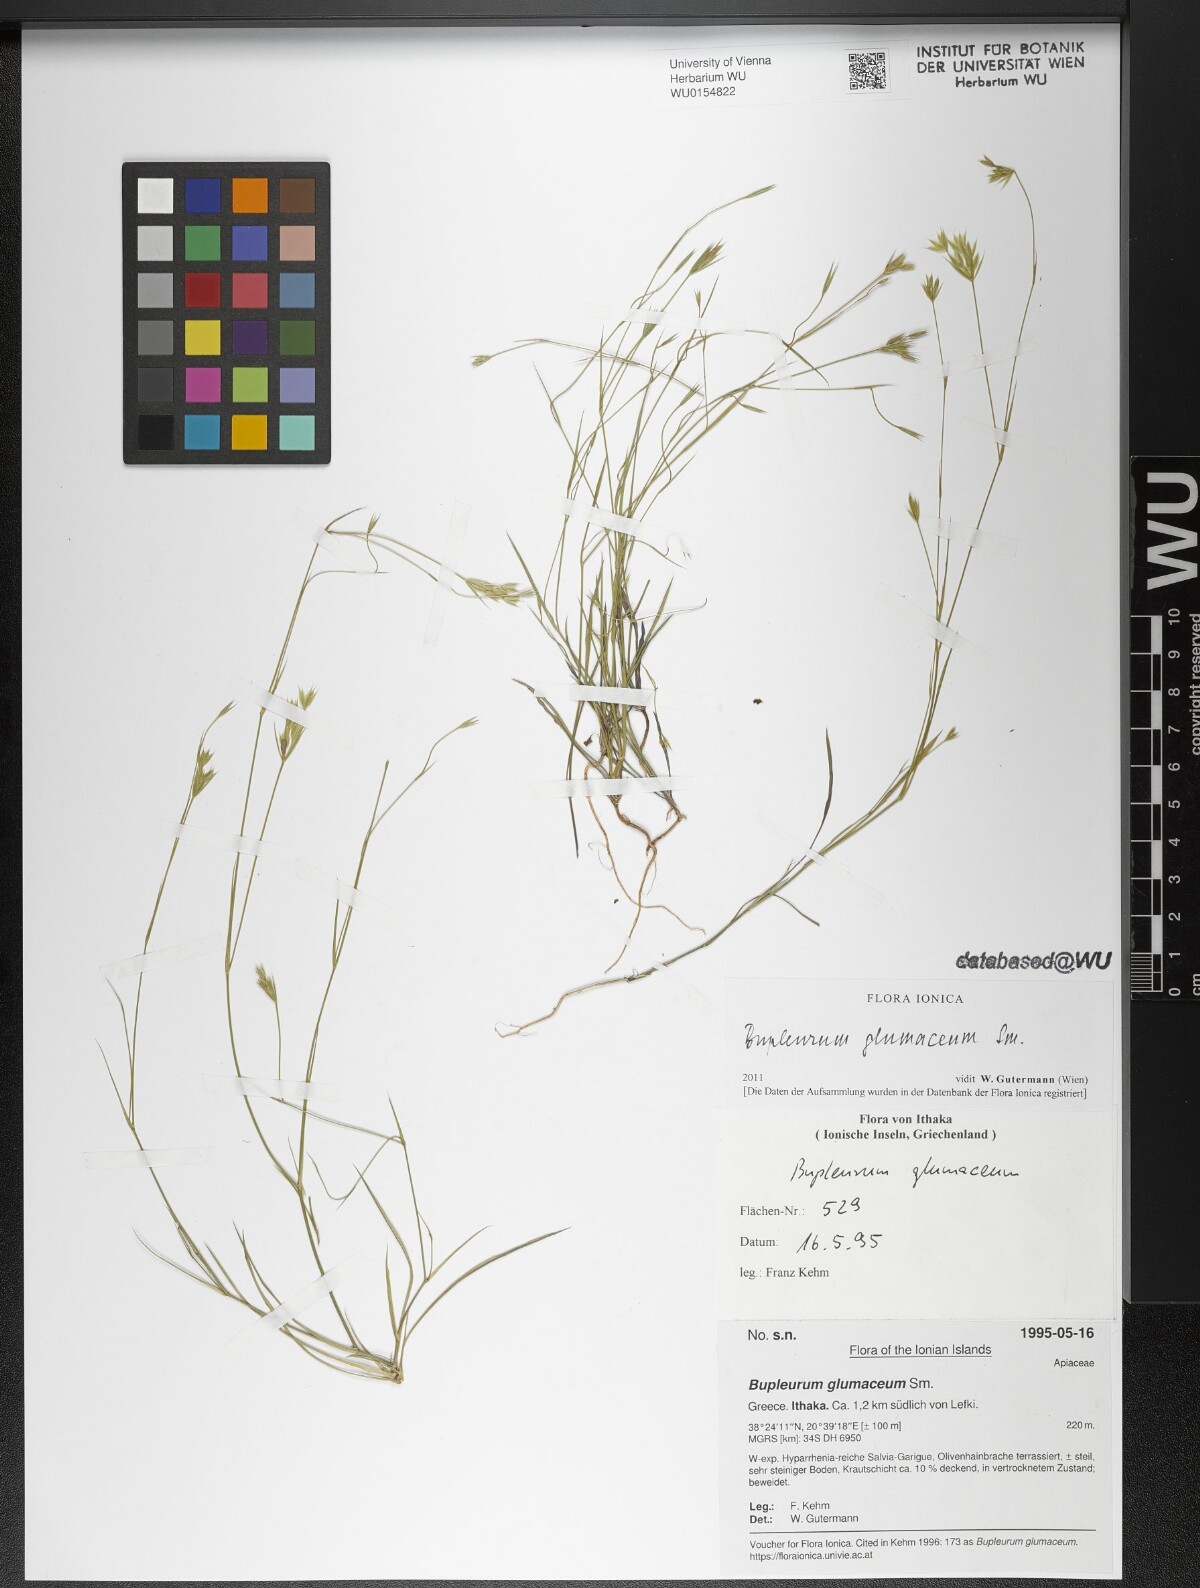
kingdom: Plantae
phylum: Tracheophyta
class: Magnoliopsida
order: Apiales
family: Apiaceae
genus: Bupleurum
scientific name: Bupleurum glumaceum
